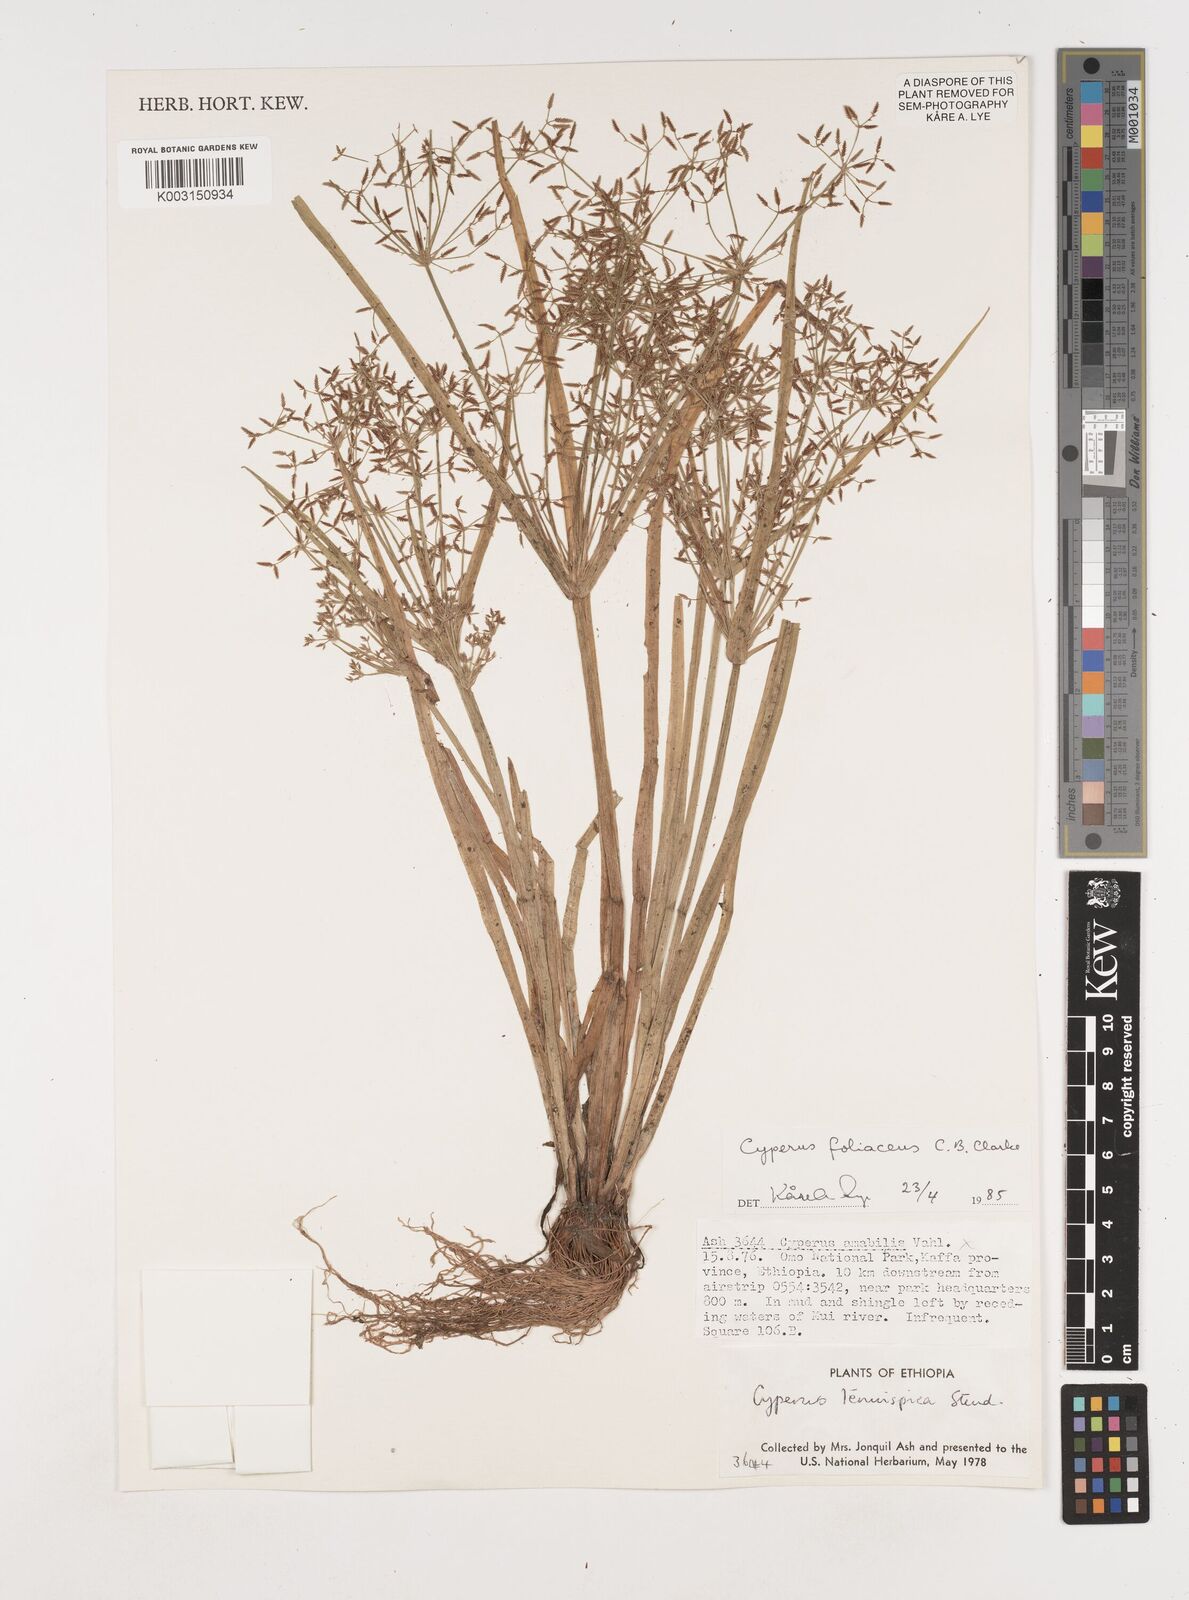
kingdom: Plantae
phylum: Tracheophyta
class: Liliopsida
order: Poales
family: Cyperaceae
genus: Cyperus
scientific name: Cyperus foliaceus
